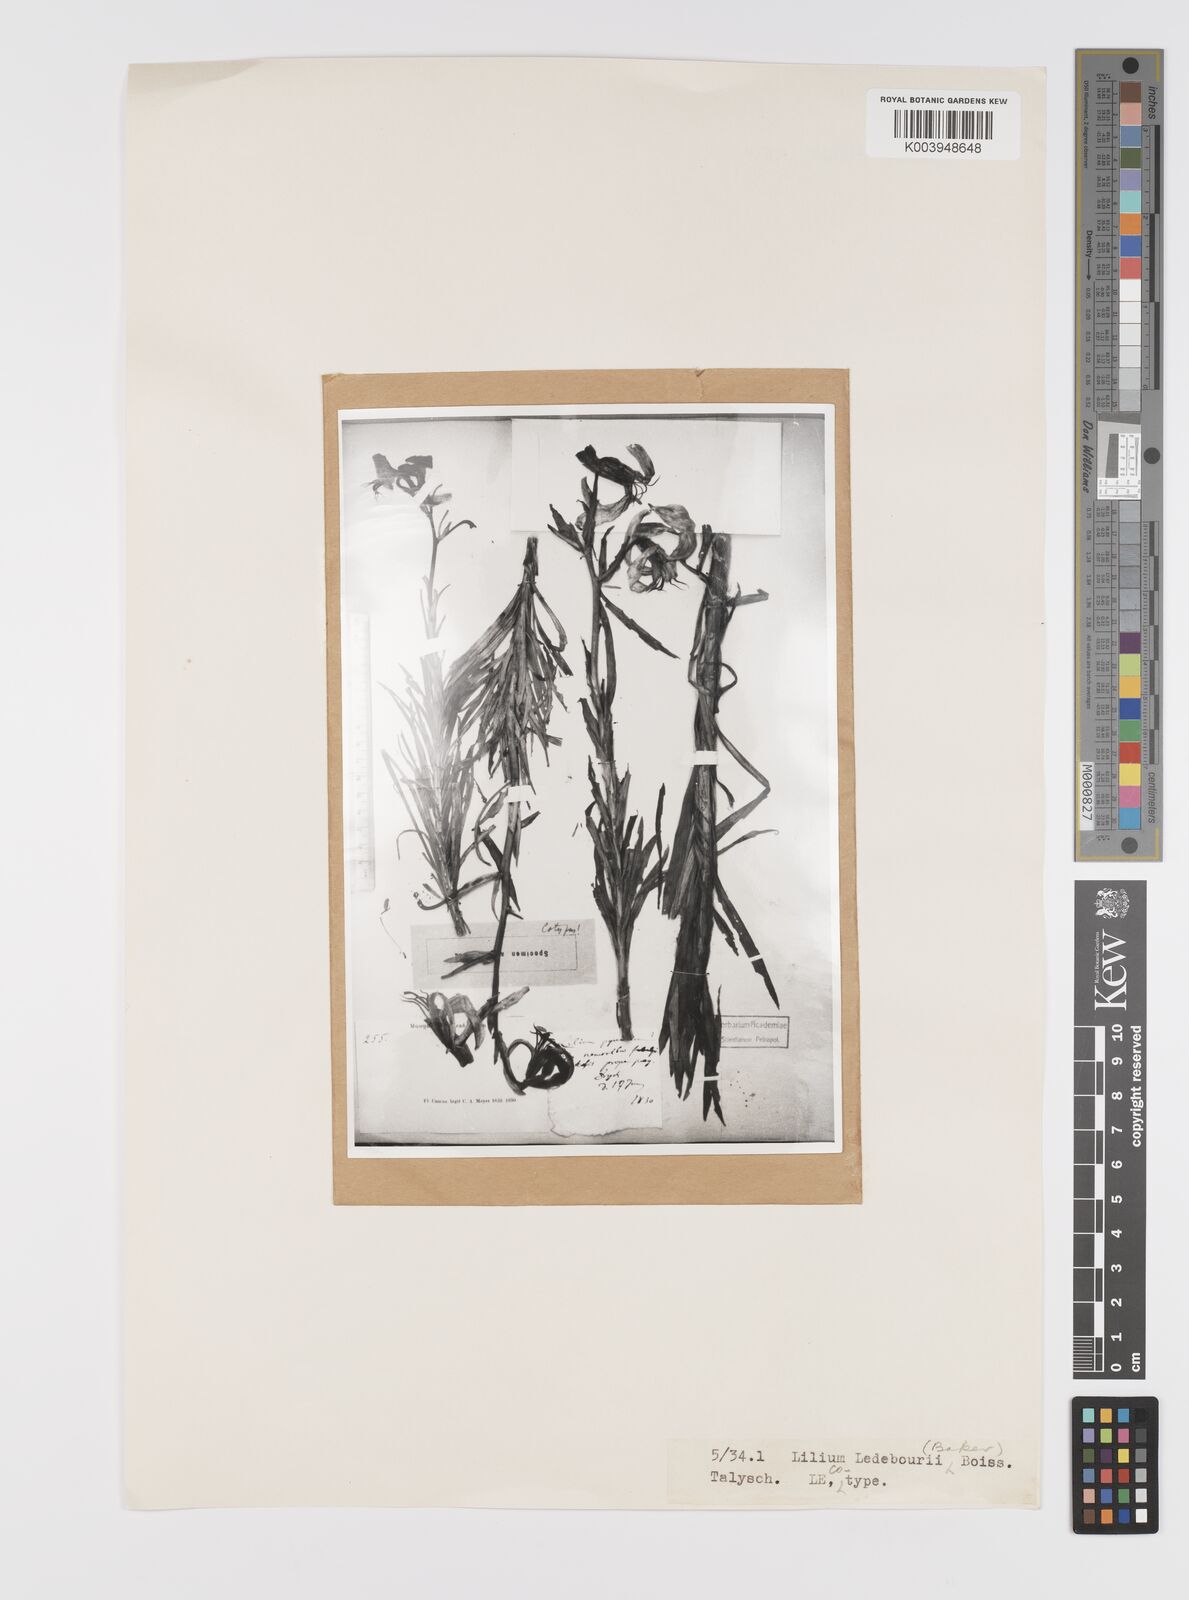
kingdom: Plantae
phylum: Tracheophyta
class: Liliopsida
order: Liliales
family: Liliaceae
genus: Lilium
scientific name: Lilium ledebourii
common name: Ledebour's lily
